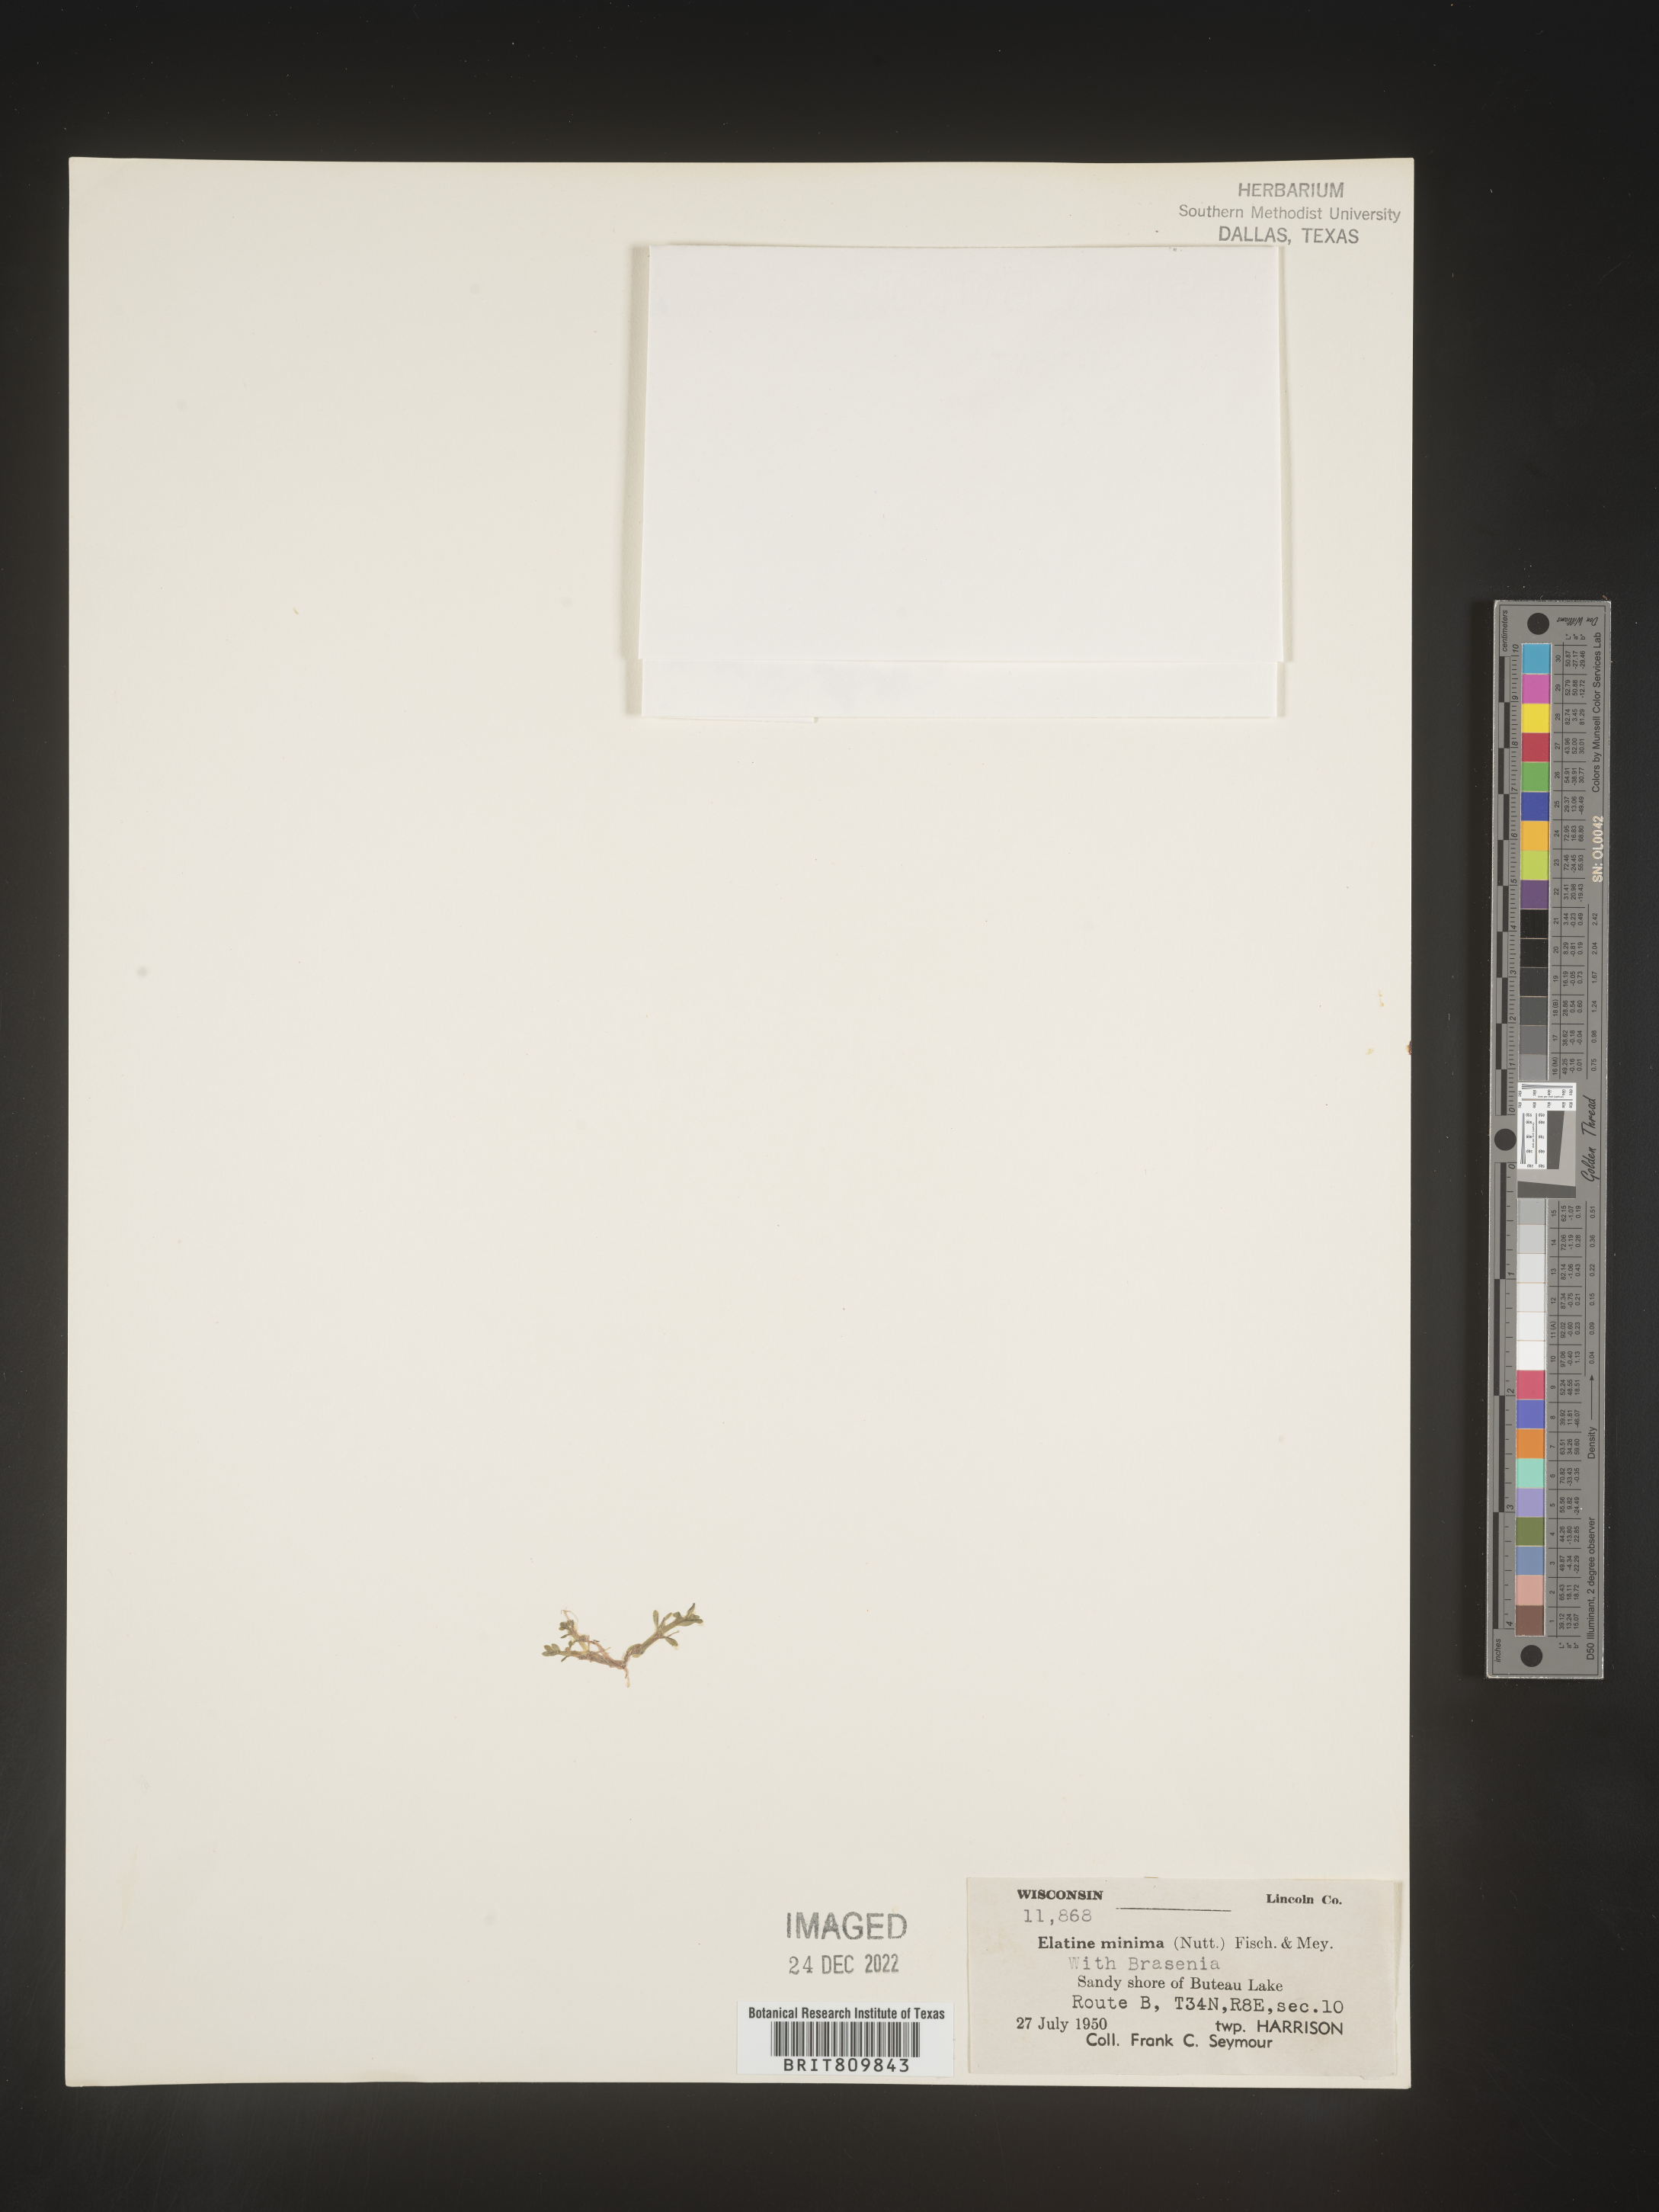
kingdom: Plantae
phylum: Tracheophyta
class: Magnoliopsida
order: Malpighiales
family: Elatinaceae
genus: Elatine
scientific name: Elatine
